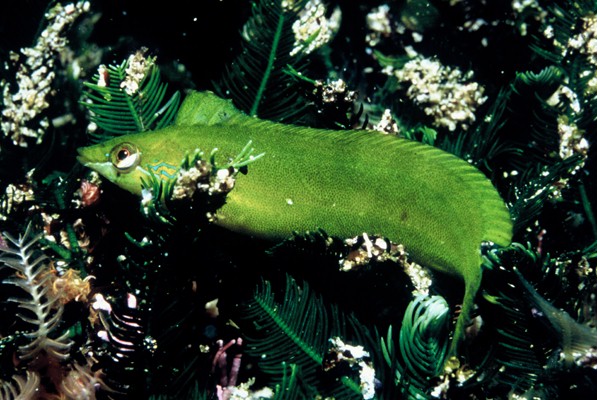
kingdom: Animalia
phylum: Chordata
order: Perciformes
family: Clinidae
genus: Pavoclinus
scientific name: Pavoclinus pavo
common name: Peacock klipfish
